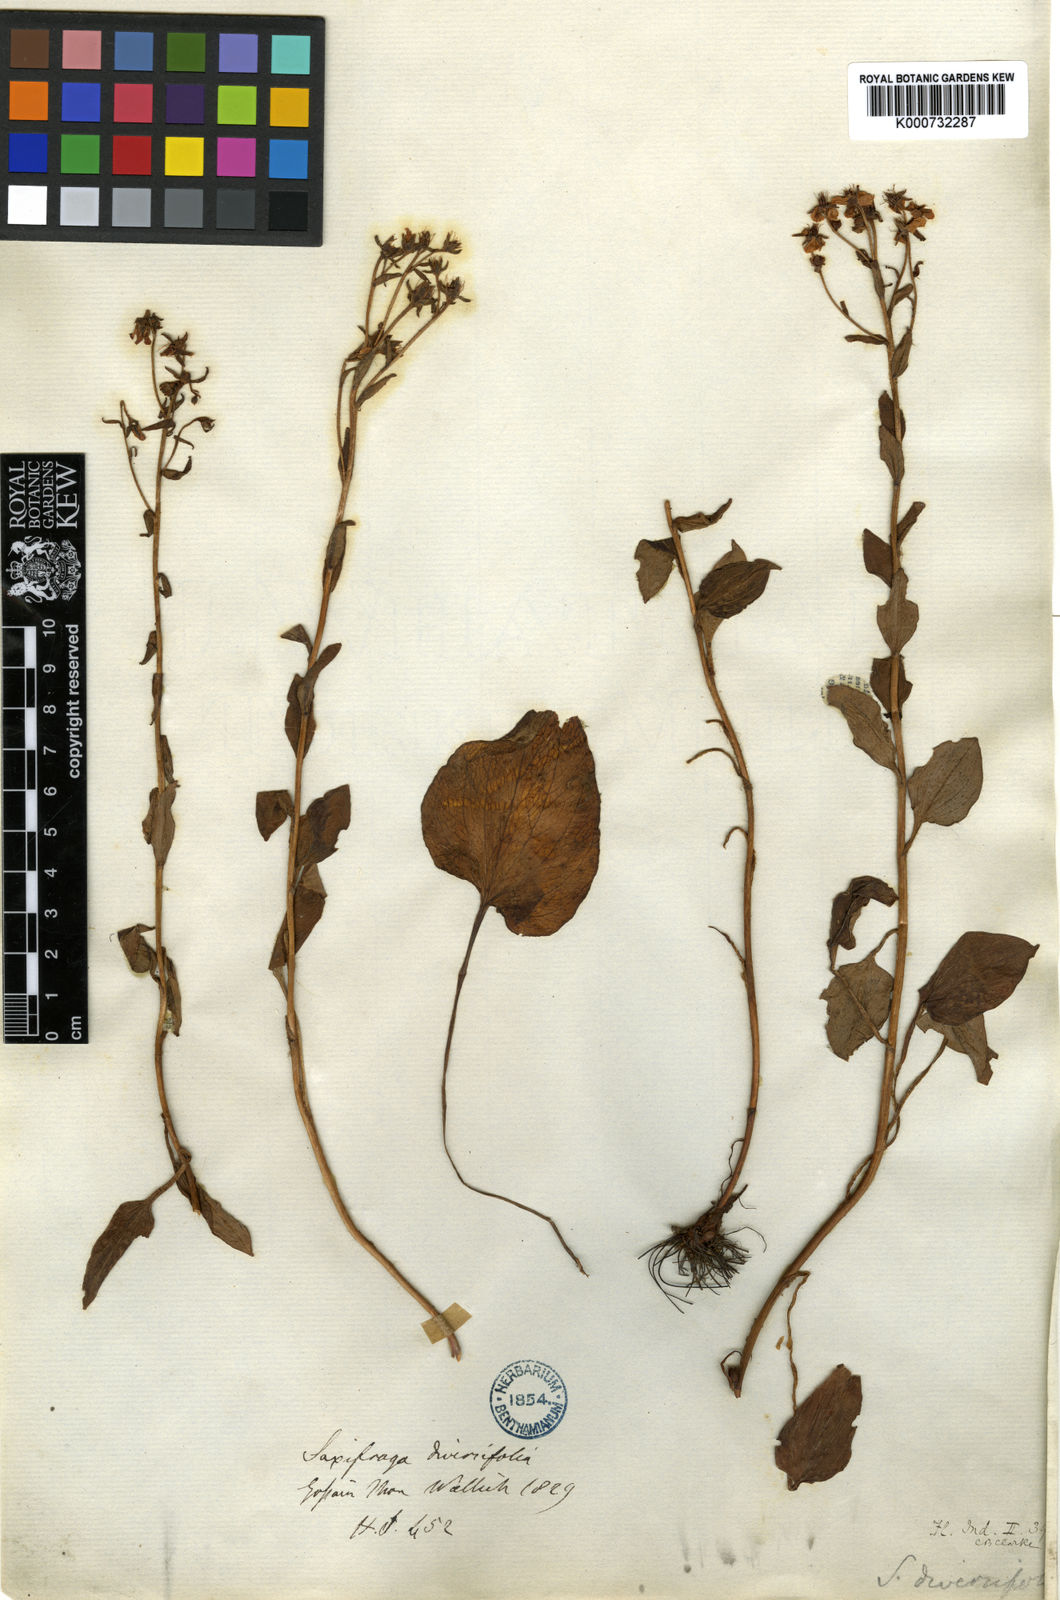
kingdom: Plantae
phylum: Tracheophyta
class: Magnoliopsida
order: Saxifragales
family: Saxifragaceae
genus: Saxifraga
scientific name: Saxifraga diversifolia
